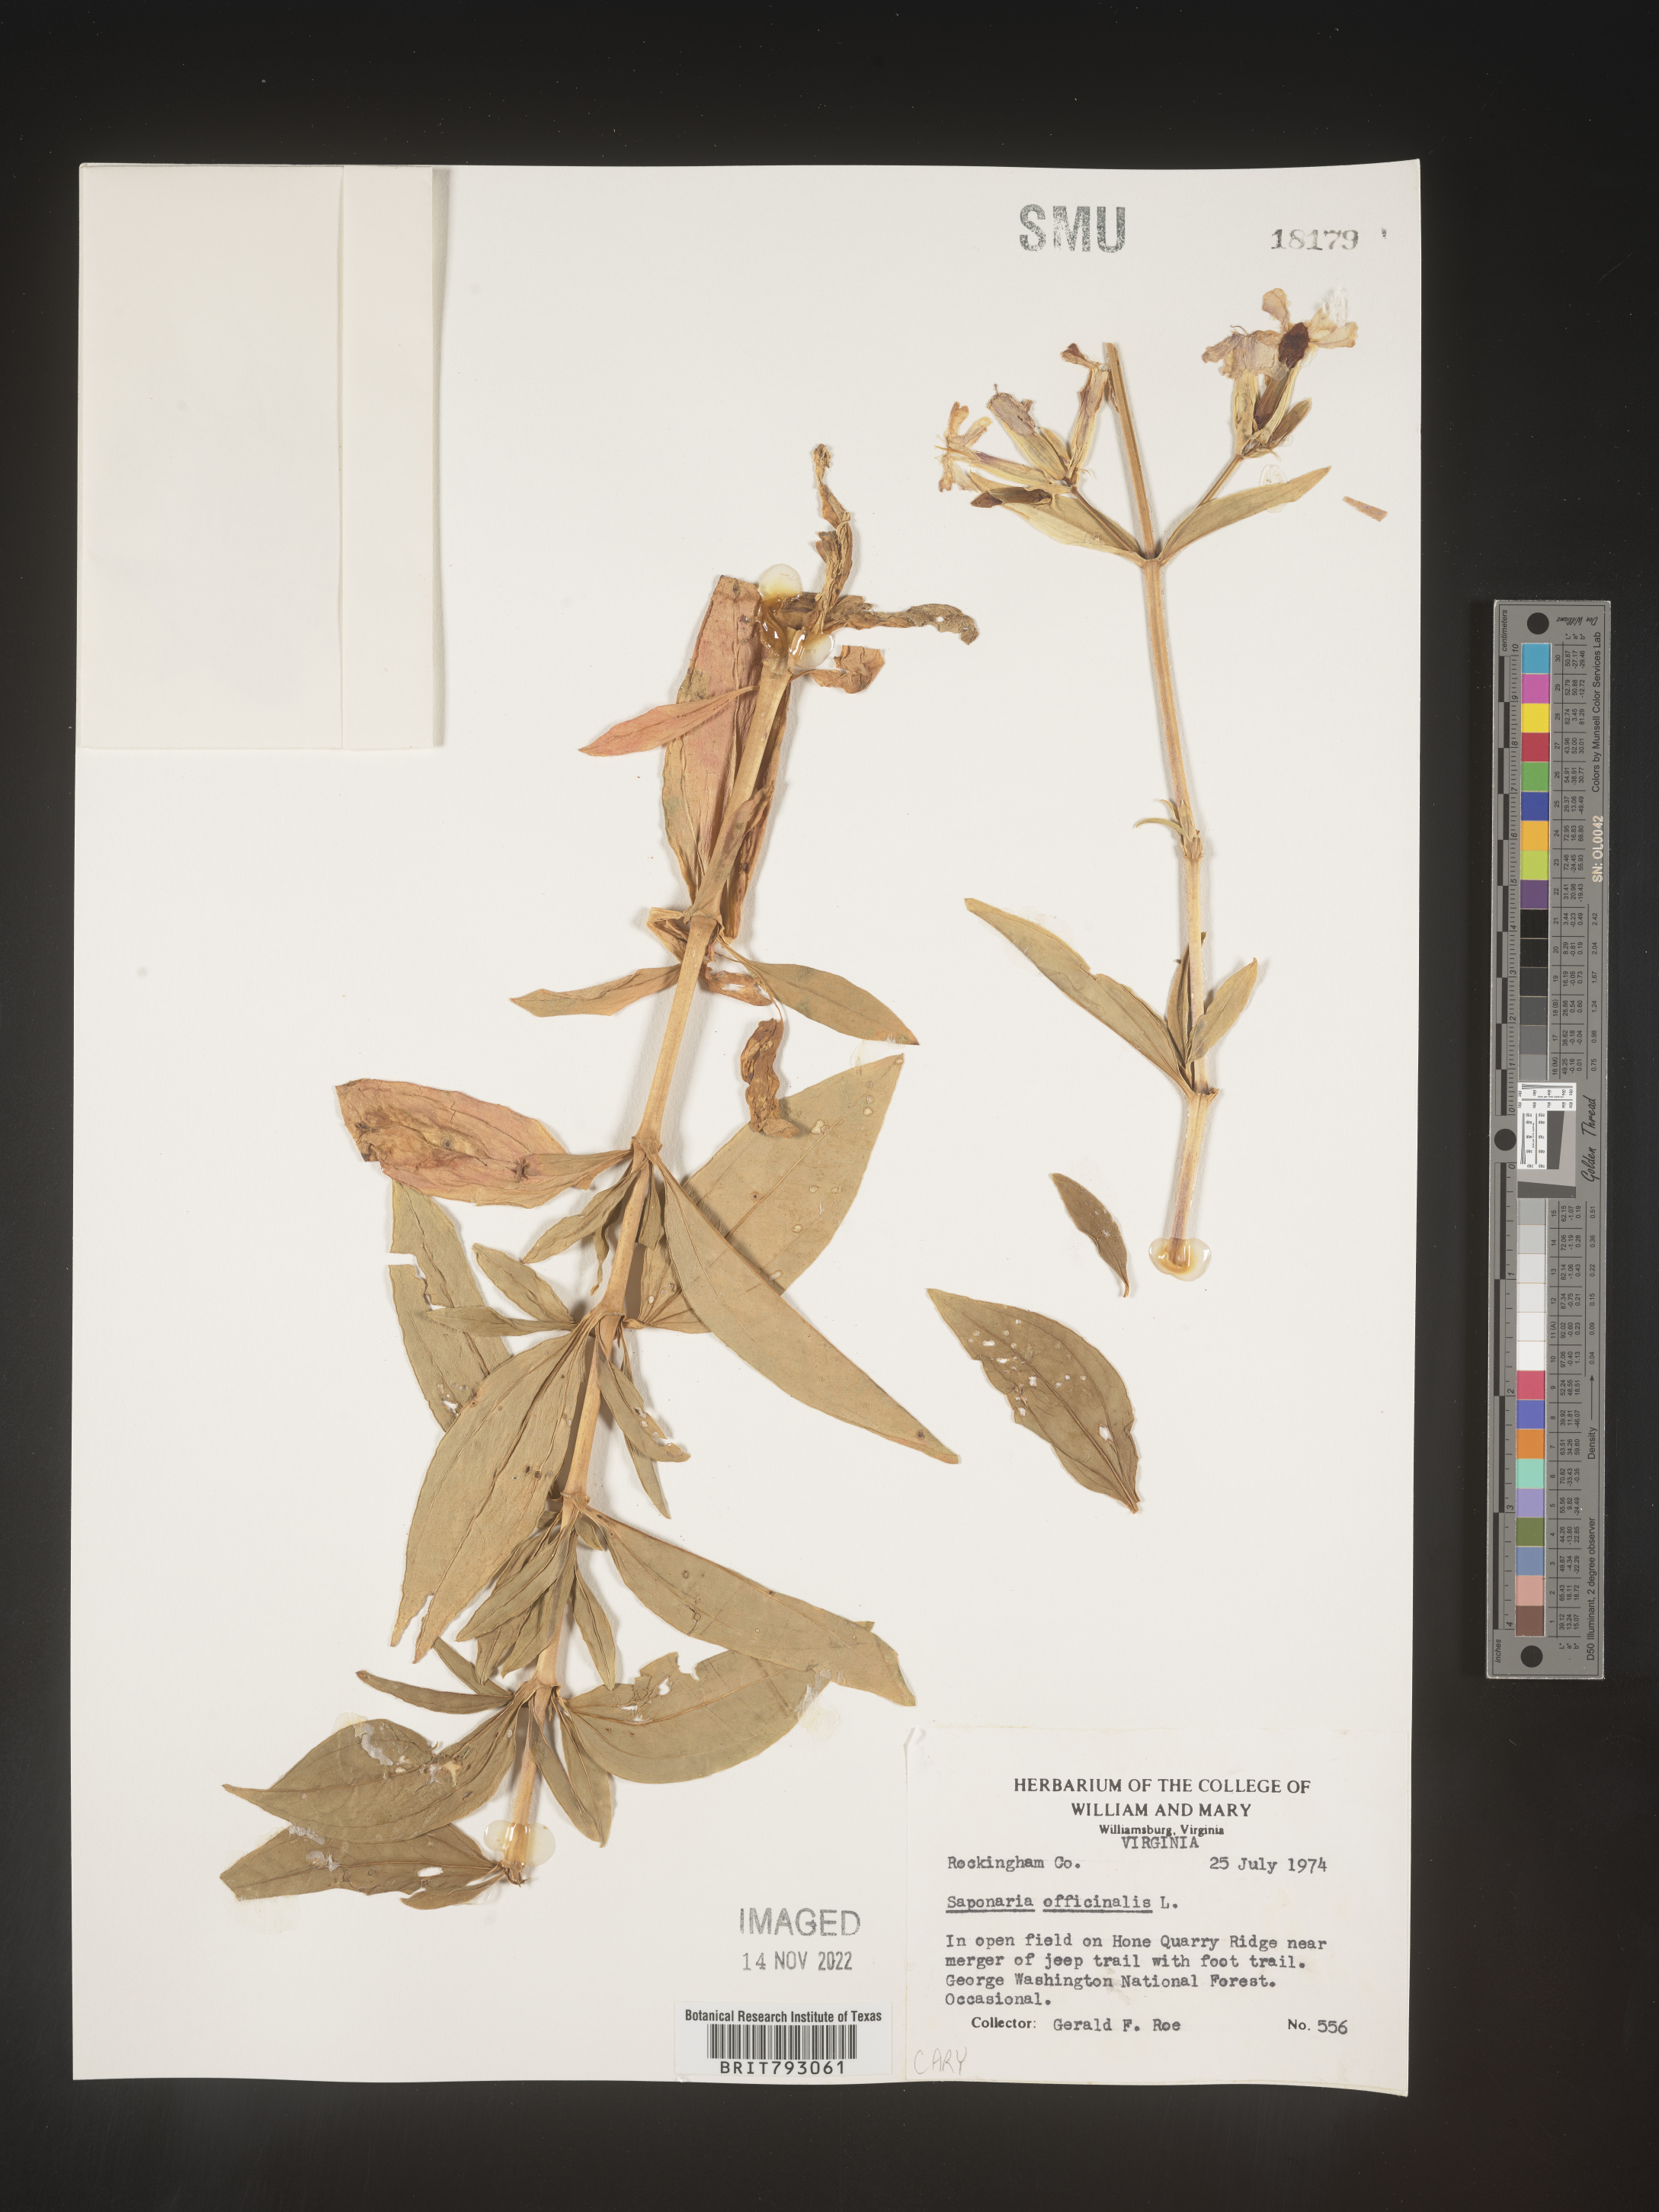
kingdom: Plantae
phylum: Tracheophyta
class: Magnoliopsida
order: Caryophyllales
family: Caryophyllaceae
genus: Saponaria
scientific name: Saponaria officinalis
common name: Soapwort
